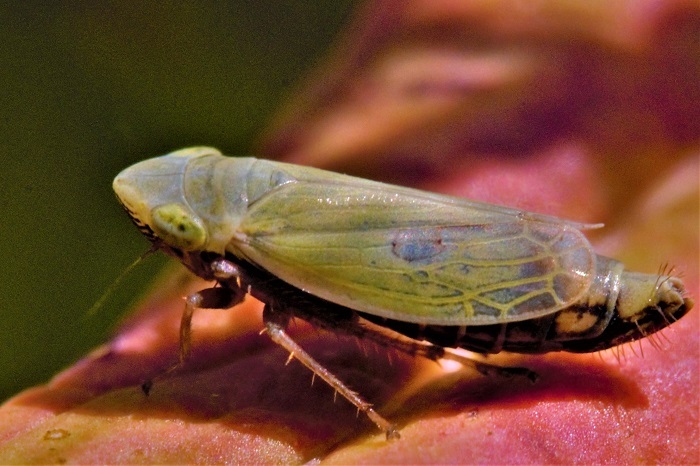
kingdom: Animalia
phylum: Arthropoda
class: Insecta
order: Hemiptera
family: Cicadellidae
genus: Diplocolenus
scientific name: Diplocolenus abdominalis
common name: Leafhopper
